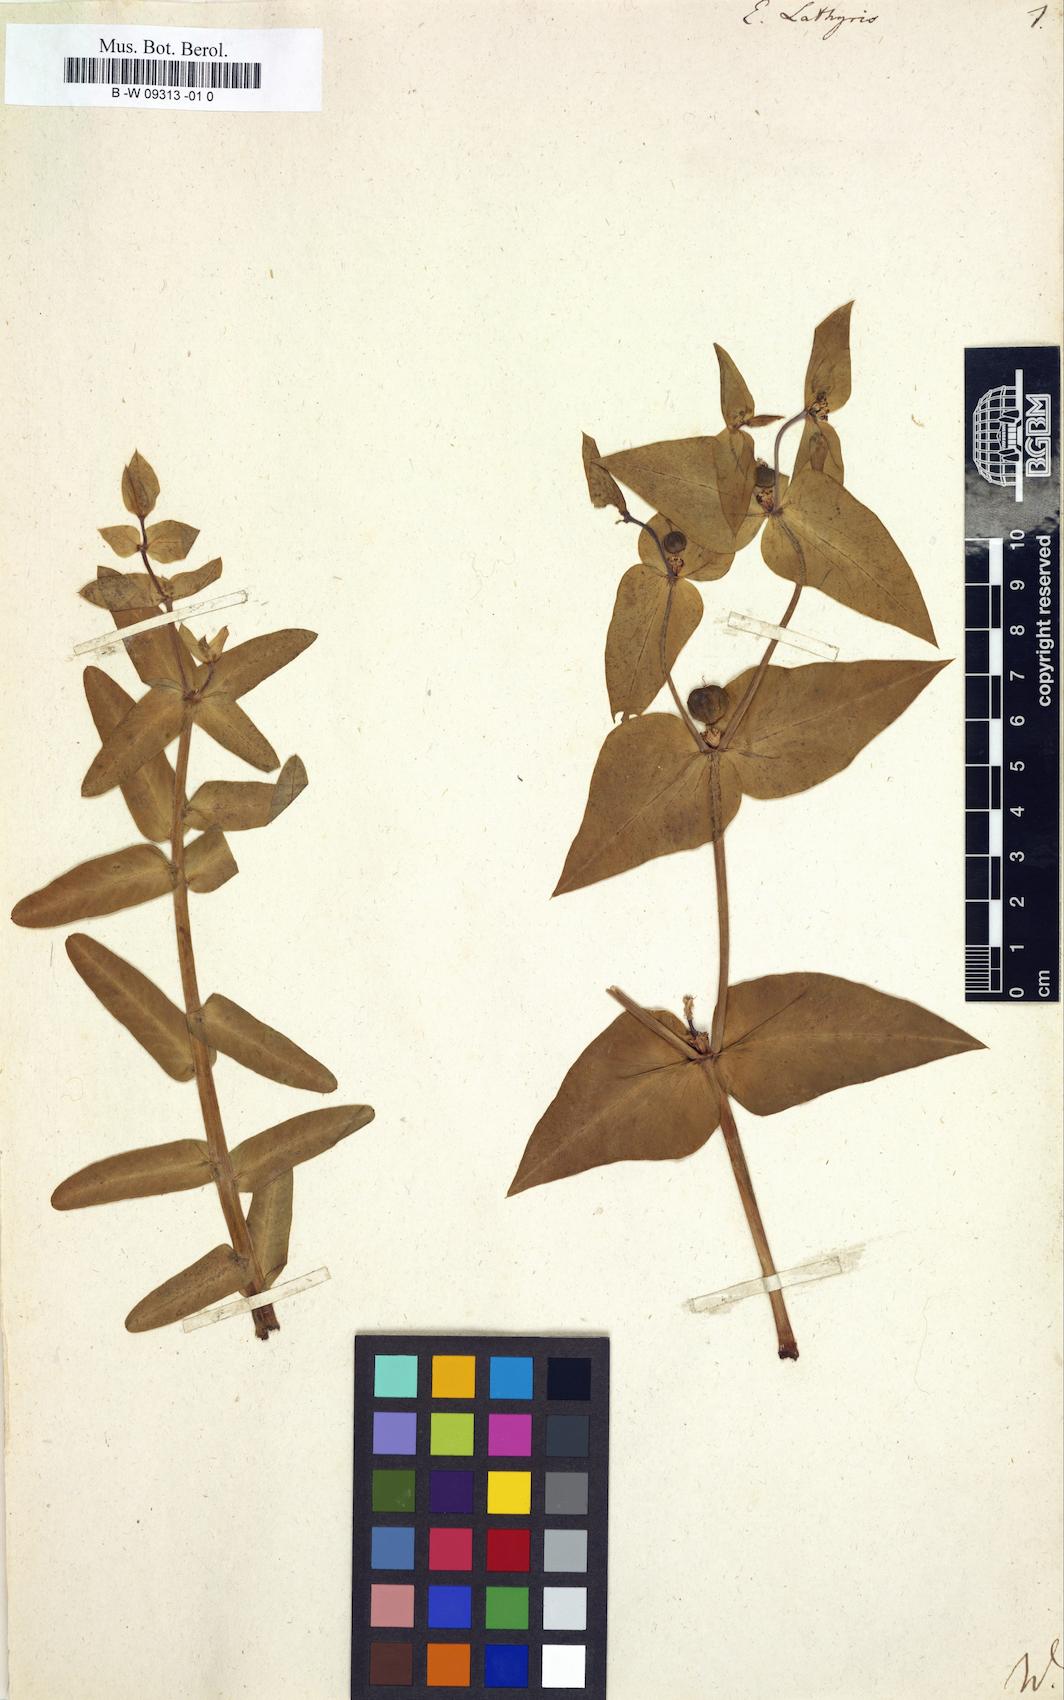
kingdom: Plantae
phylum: Tracheophyta
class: Magnoliopsida
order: Malpighiales
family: Euphorbiaceae
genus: Euphorbia
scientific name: Euphorbia lathyris
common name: Caper spurge
